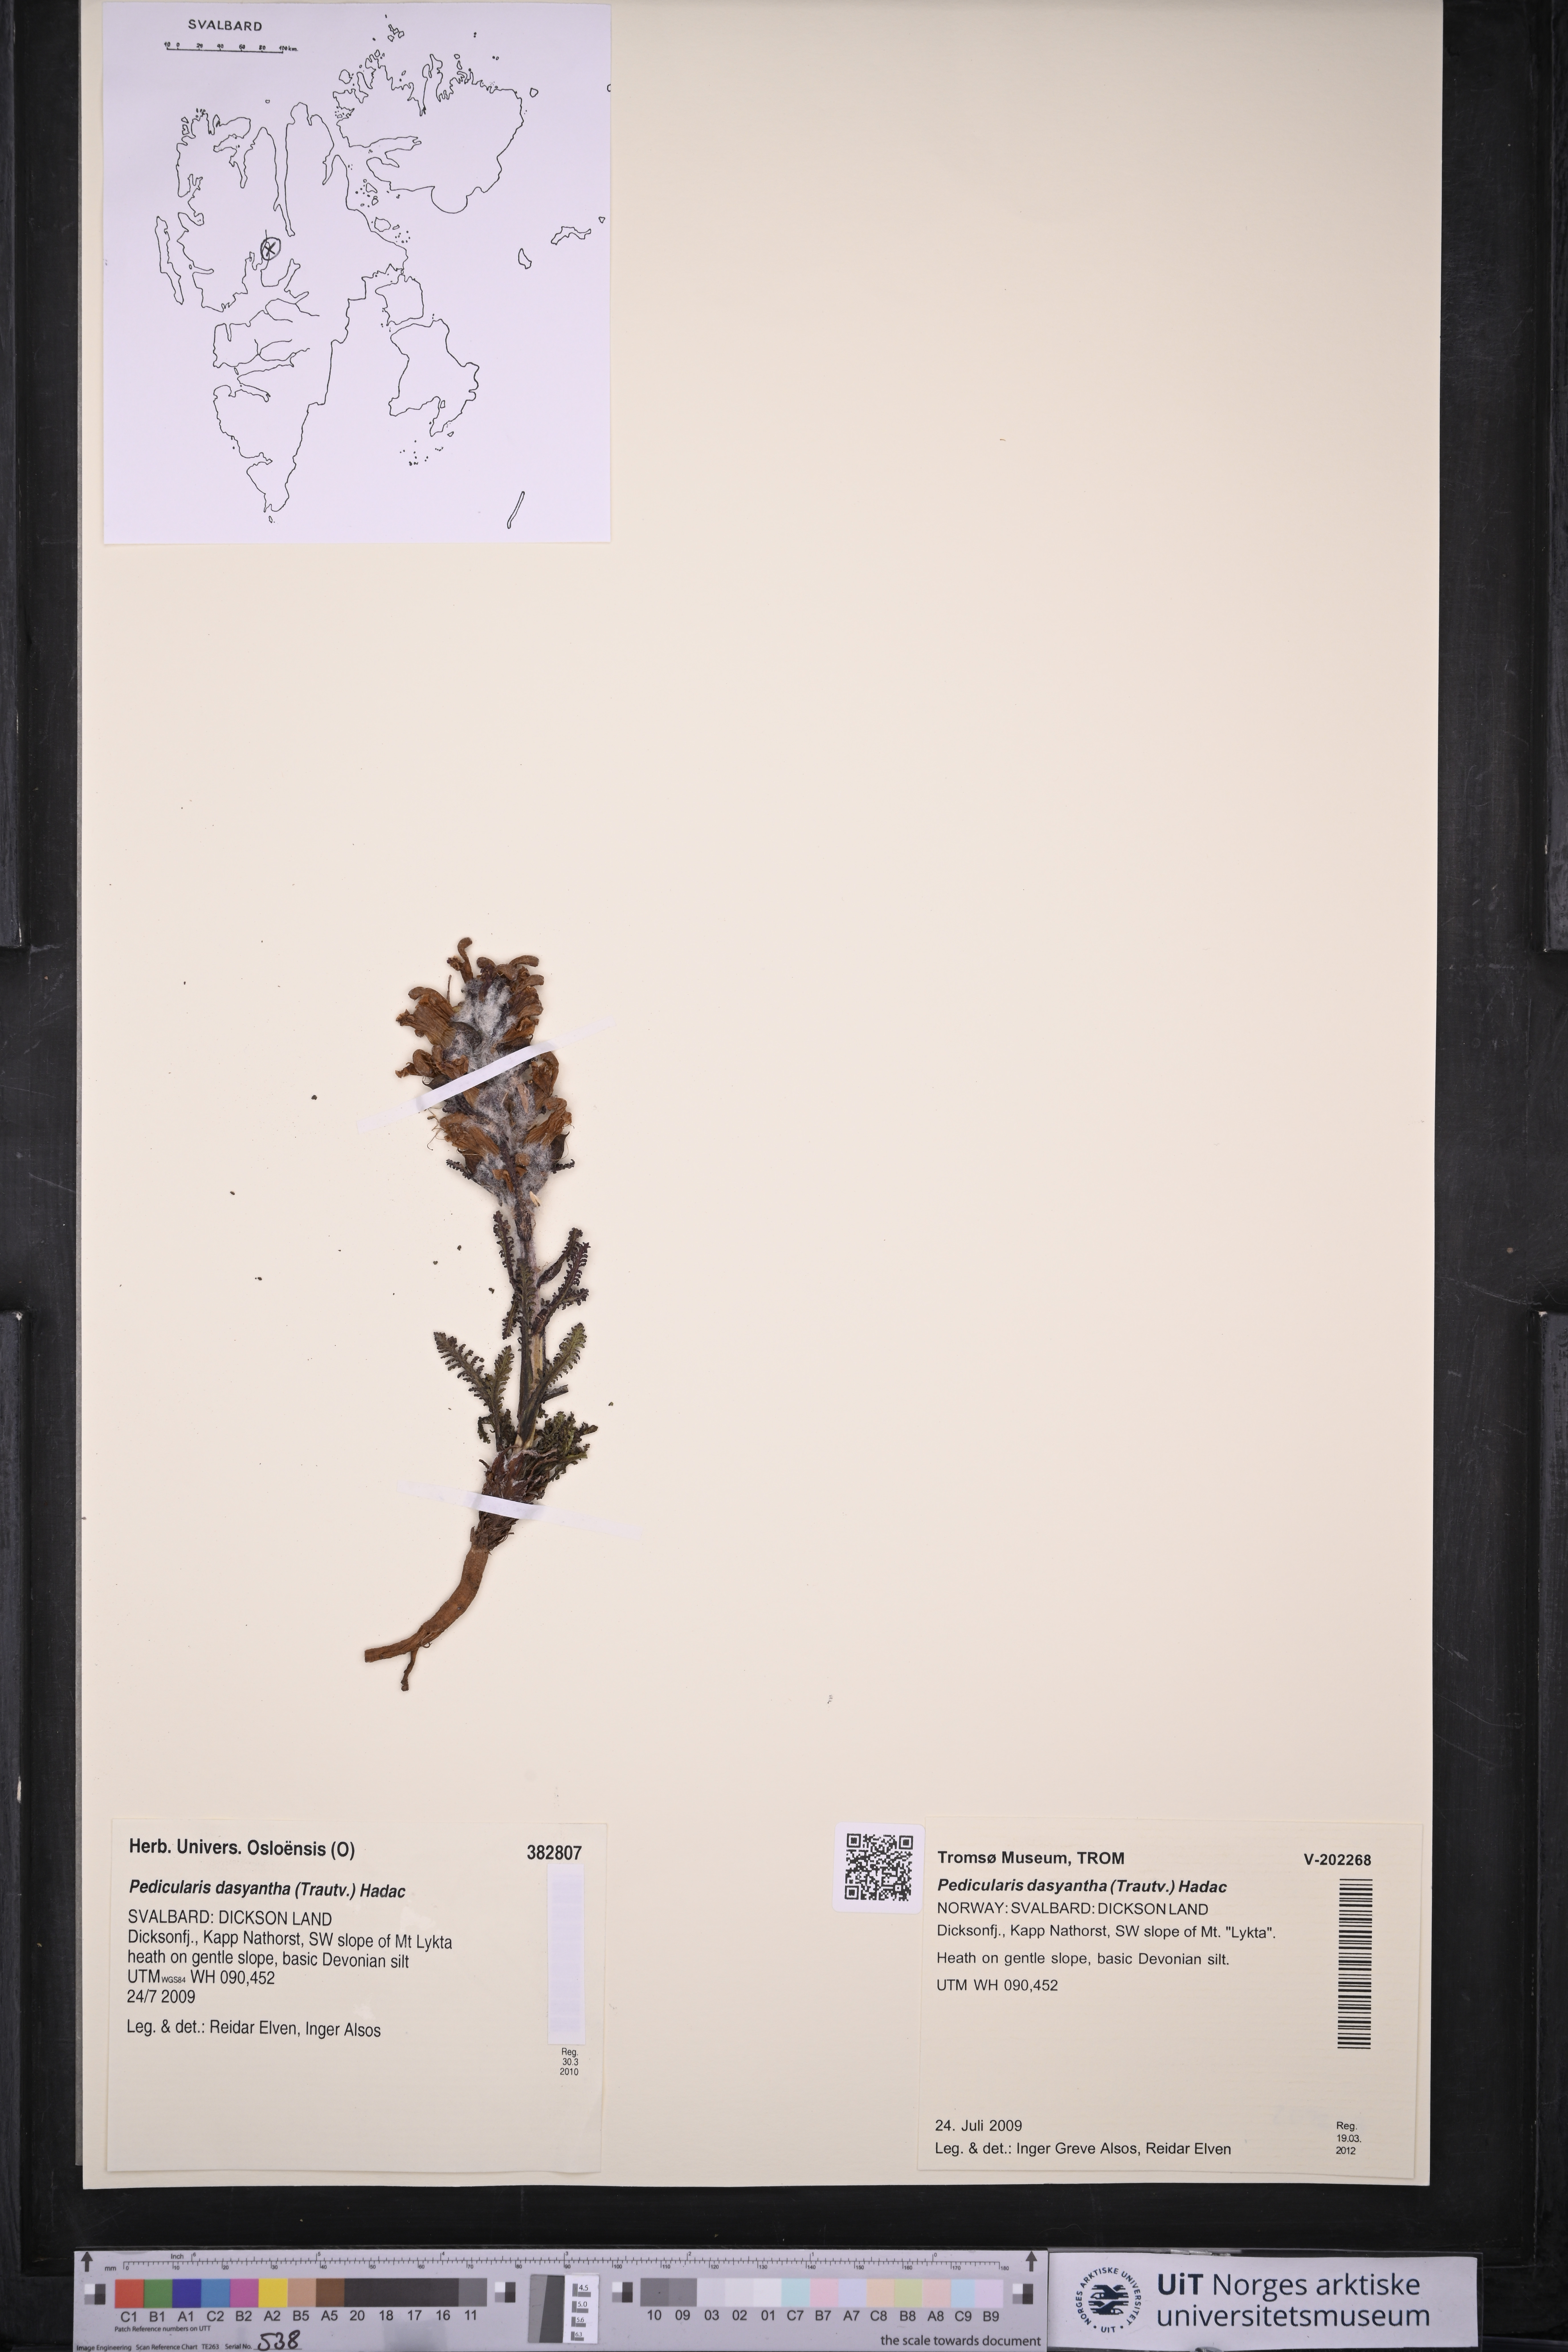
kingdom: Plantae
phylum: Tracheophyta
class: Magnoliopsida
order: Lamiales
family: Orobanchaceae
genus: Pedicularis
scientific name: Pedicularis dasyantha
